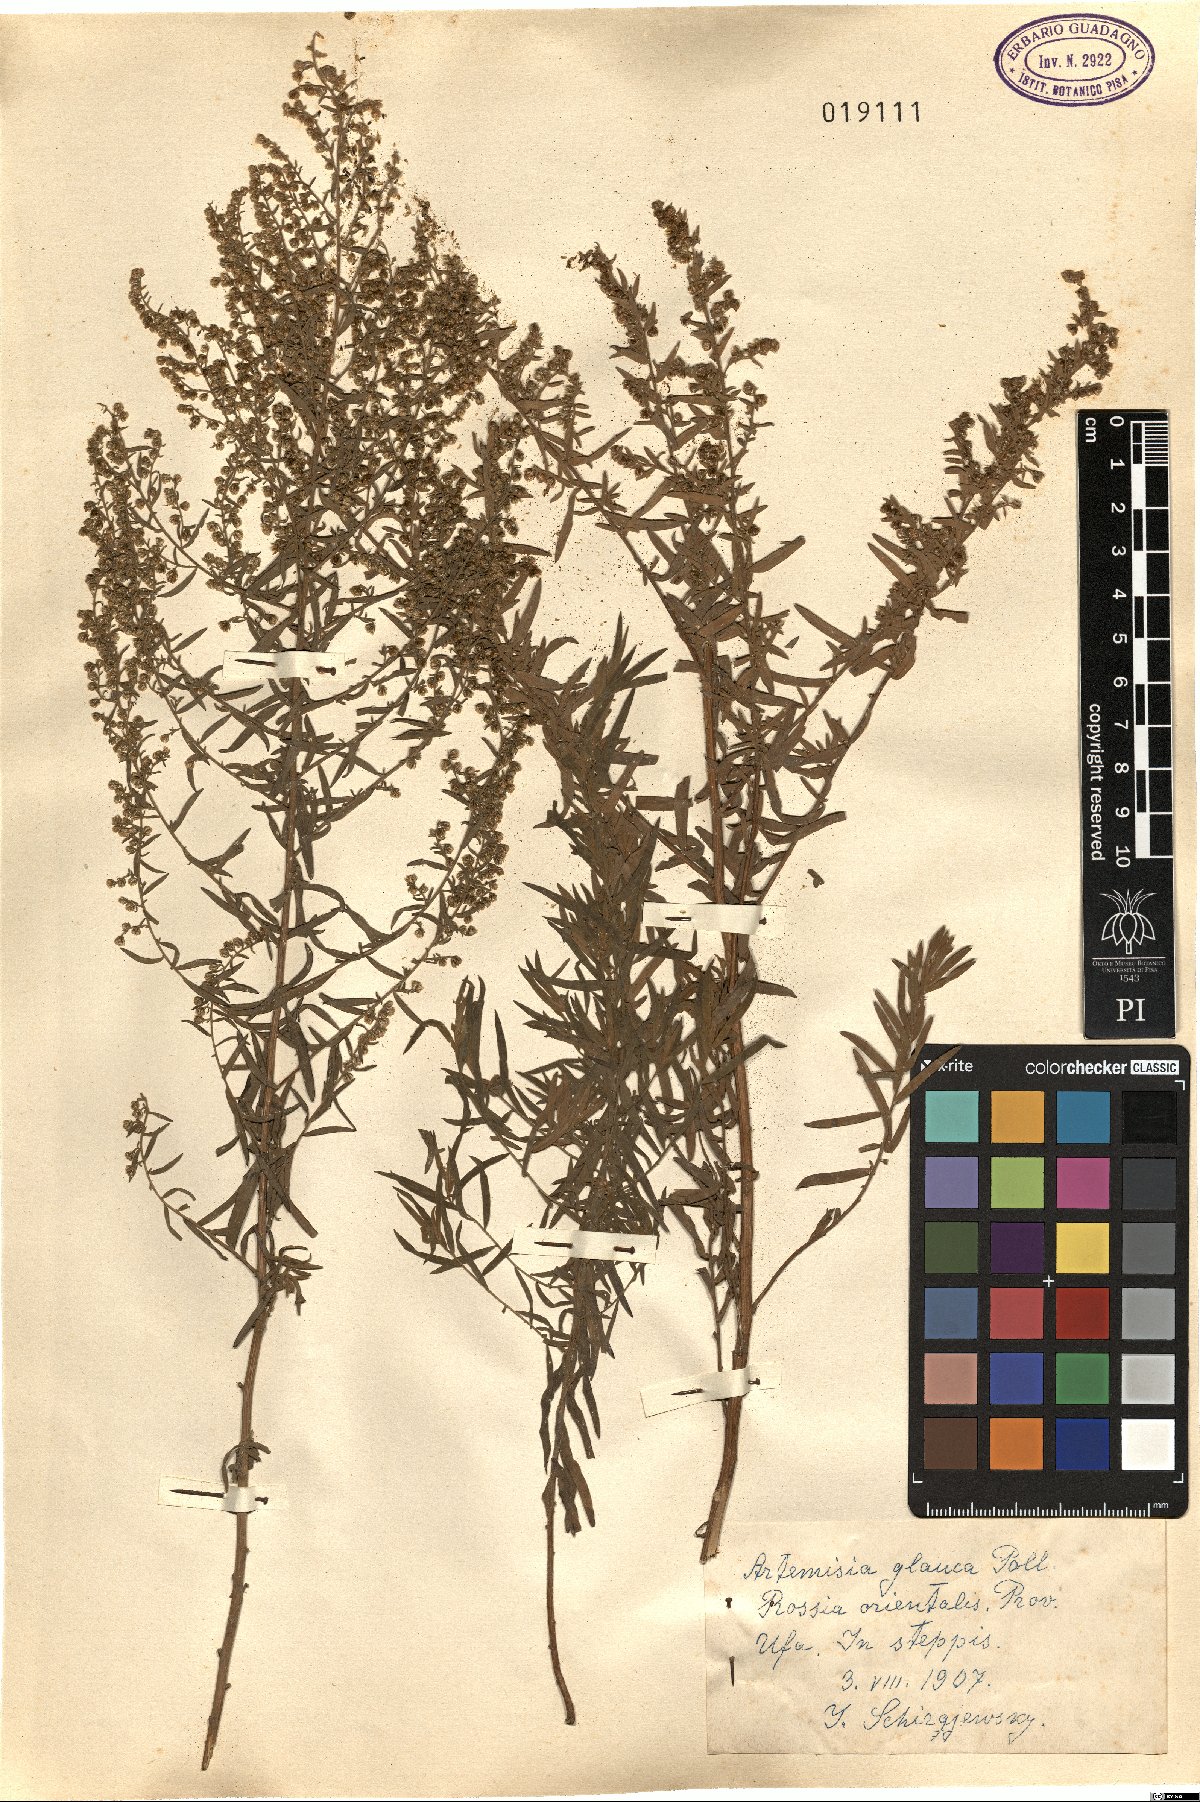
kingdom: Plantae
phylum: Tracheophyta
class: Magnoliopsida
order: Asterales
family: Asteraceae
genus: Artemisia
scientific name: Artemisia glauca
